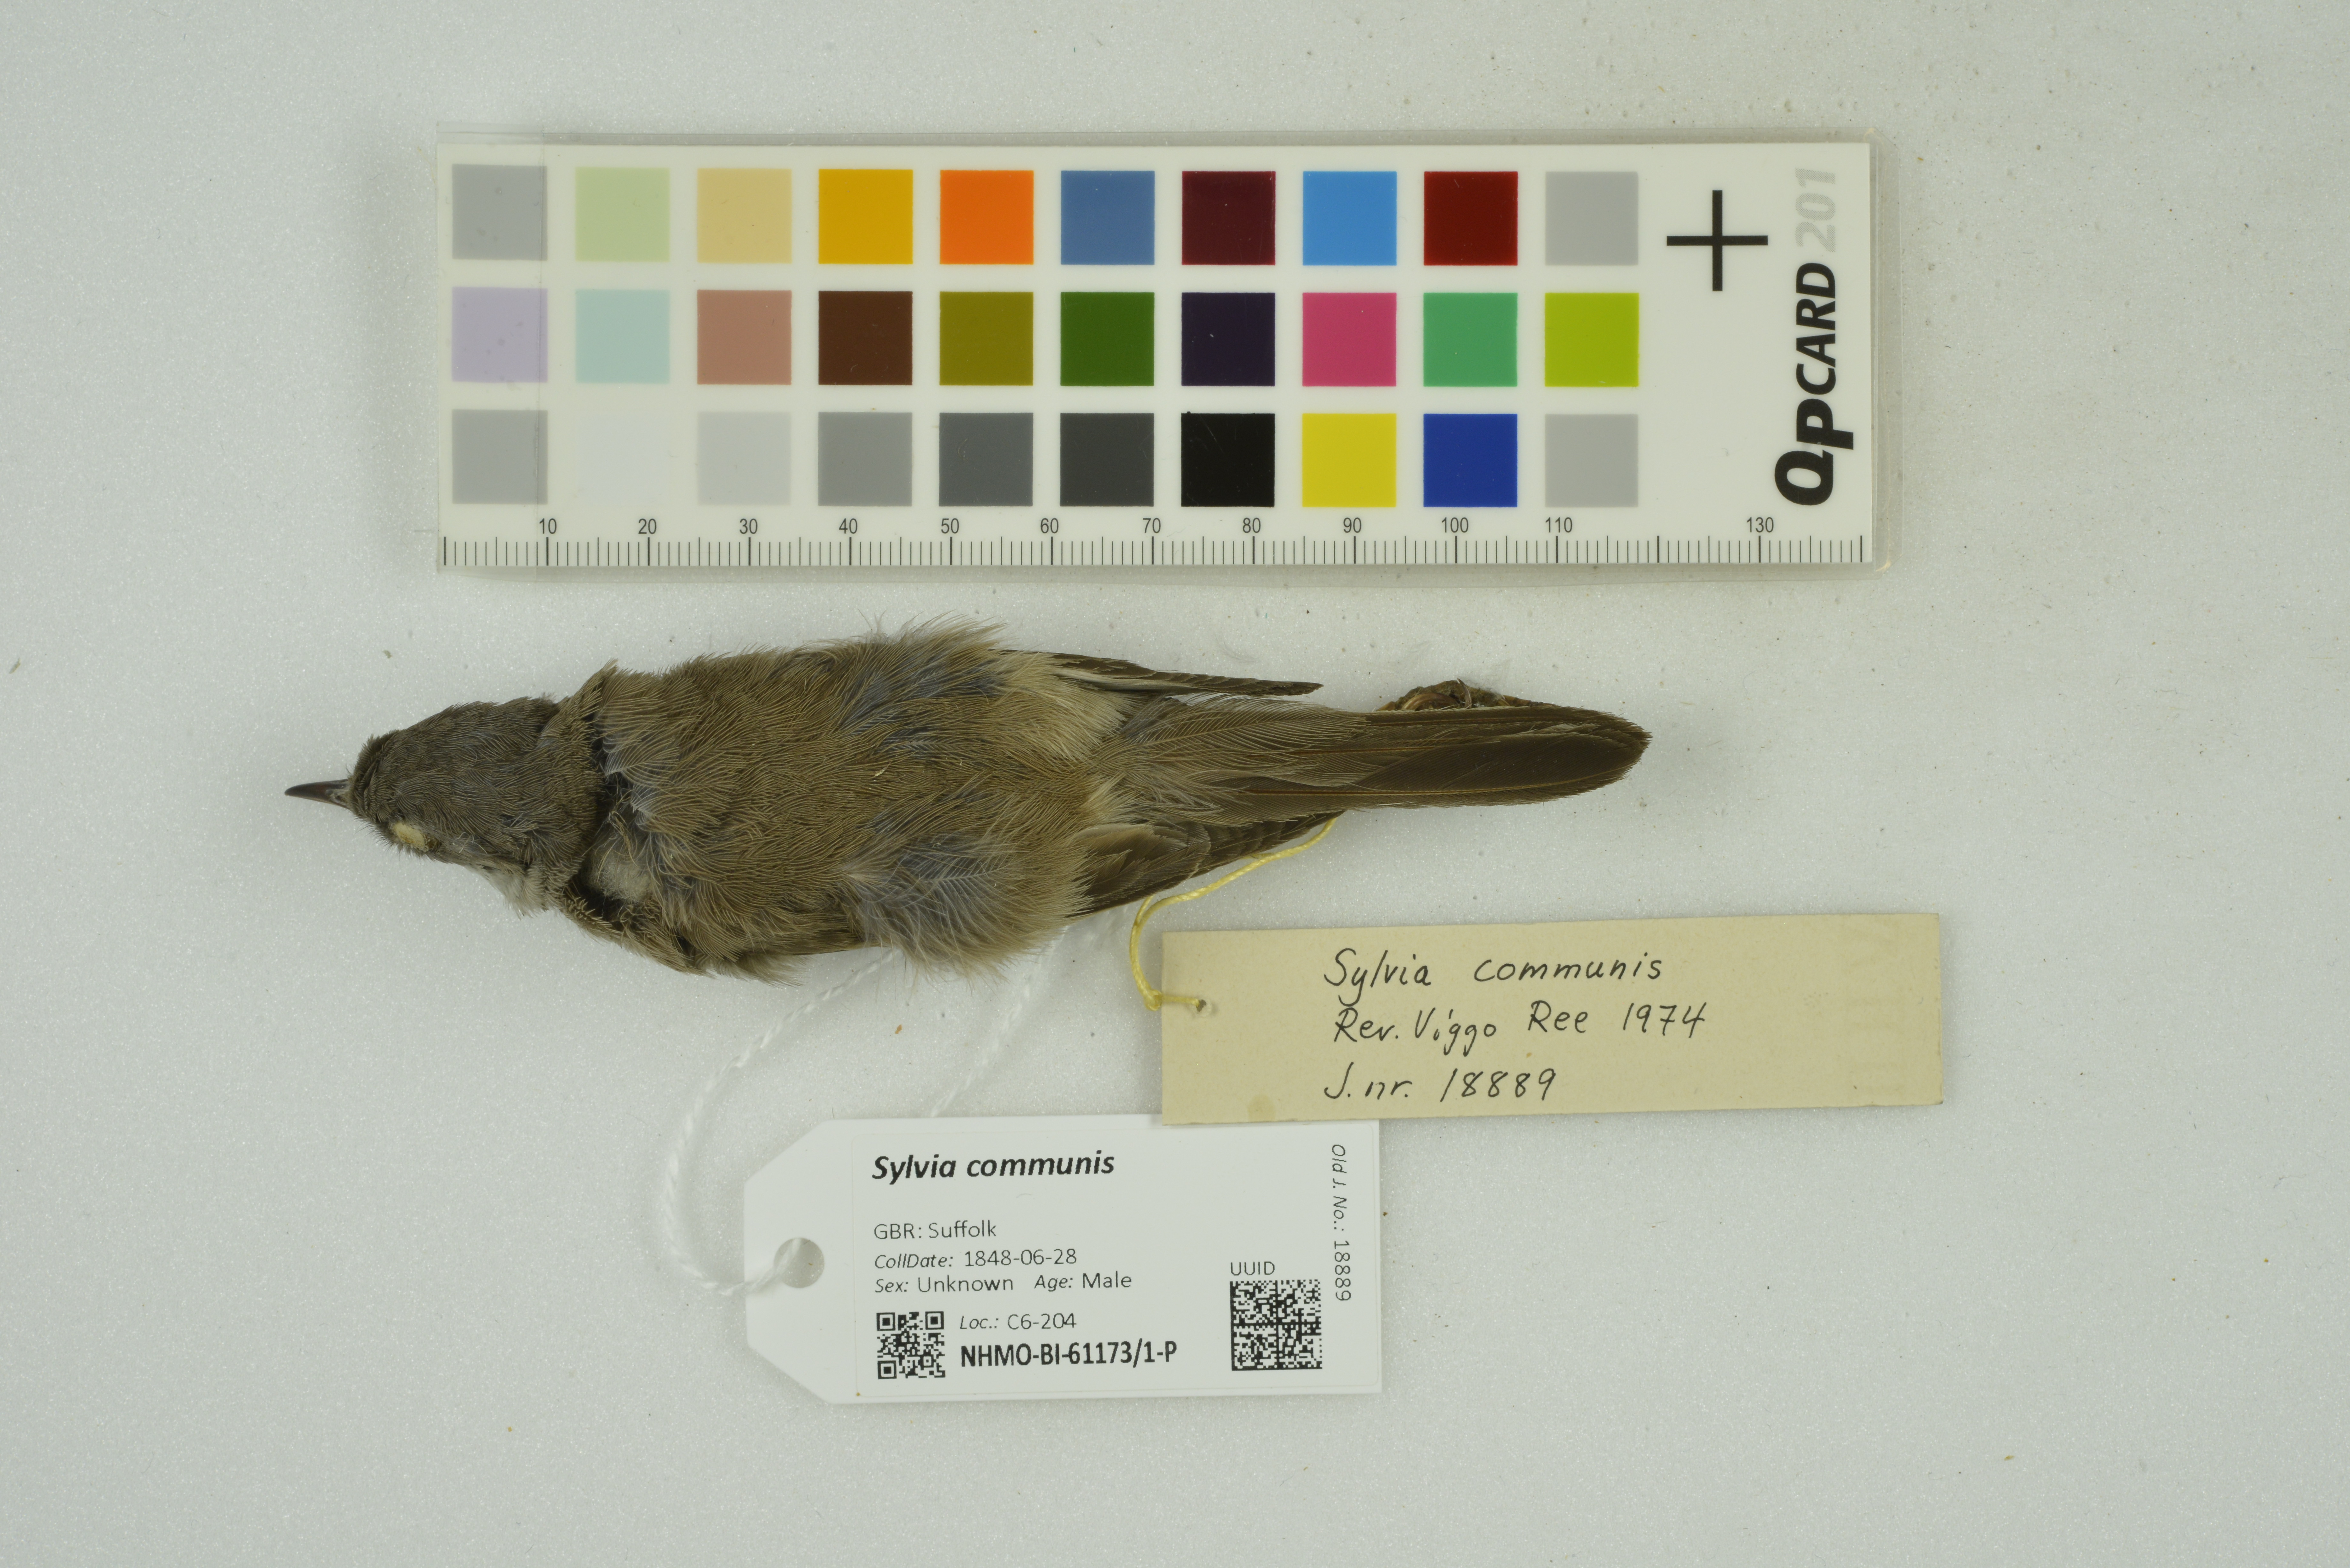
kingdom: Animalia
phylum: Chordata
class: Aves
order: Passeriformes
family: Sylviidae
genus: Sylvia
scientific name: Sylvia communis
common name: Common whitethroat
